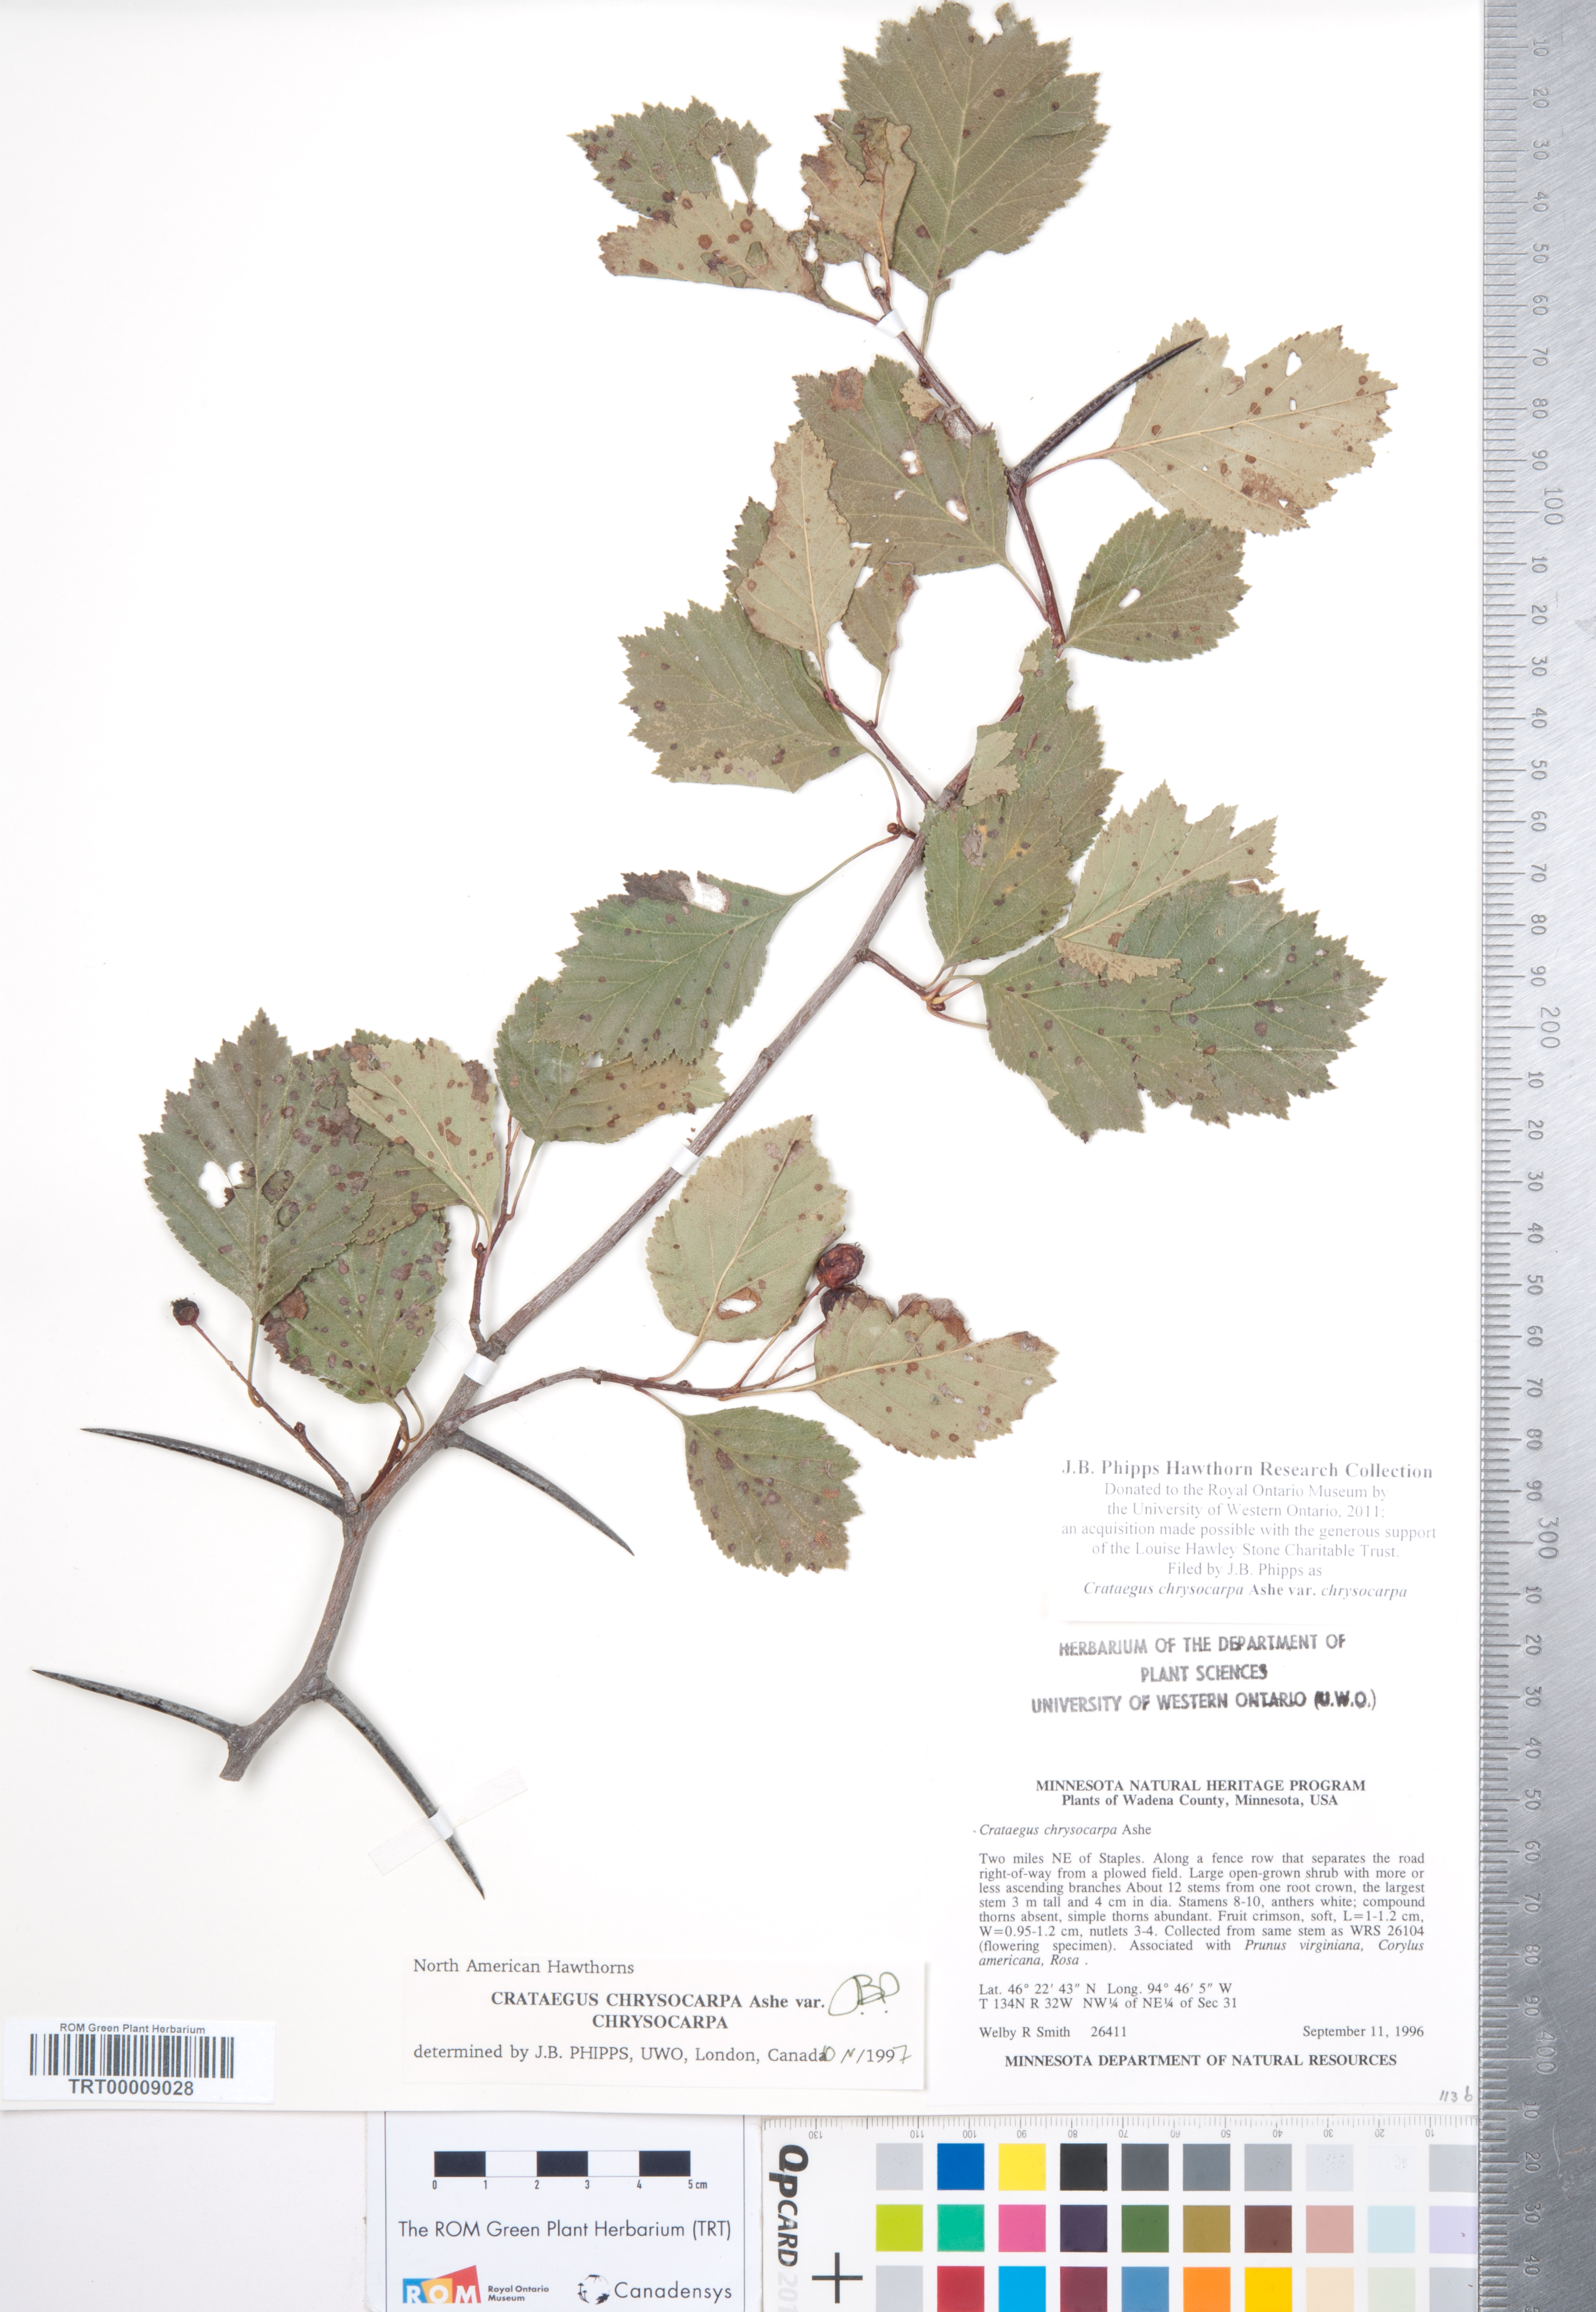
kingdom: Plantae
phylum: Tracheophyta
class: Magnoliopsida
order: Rosales
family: Rosaceae
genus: Crataegus
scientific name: Crataegus chrysocarpa
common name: Fire-berry hawthorn
